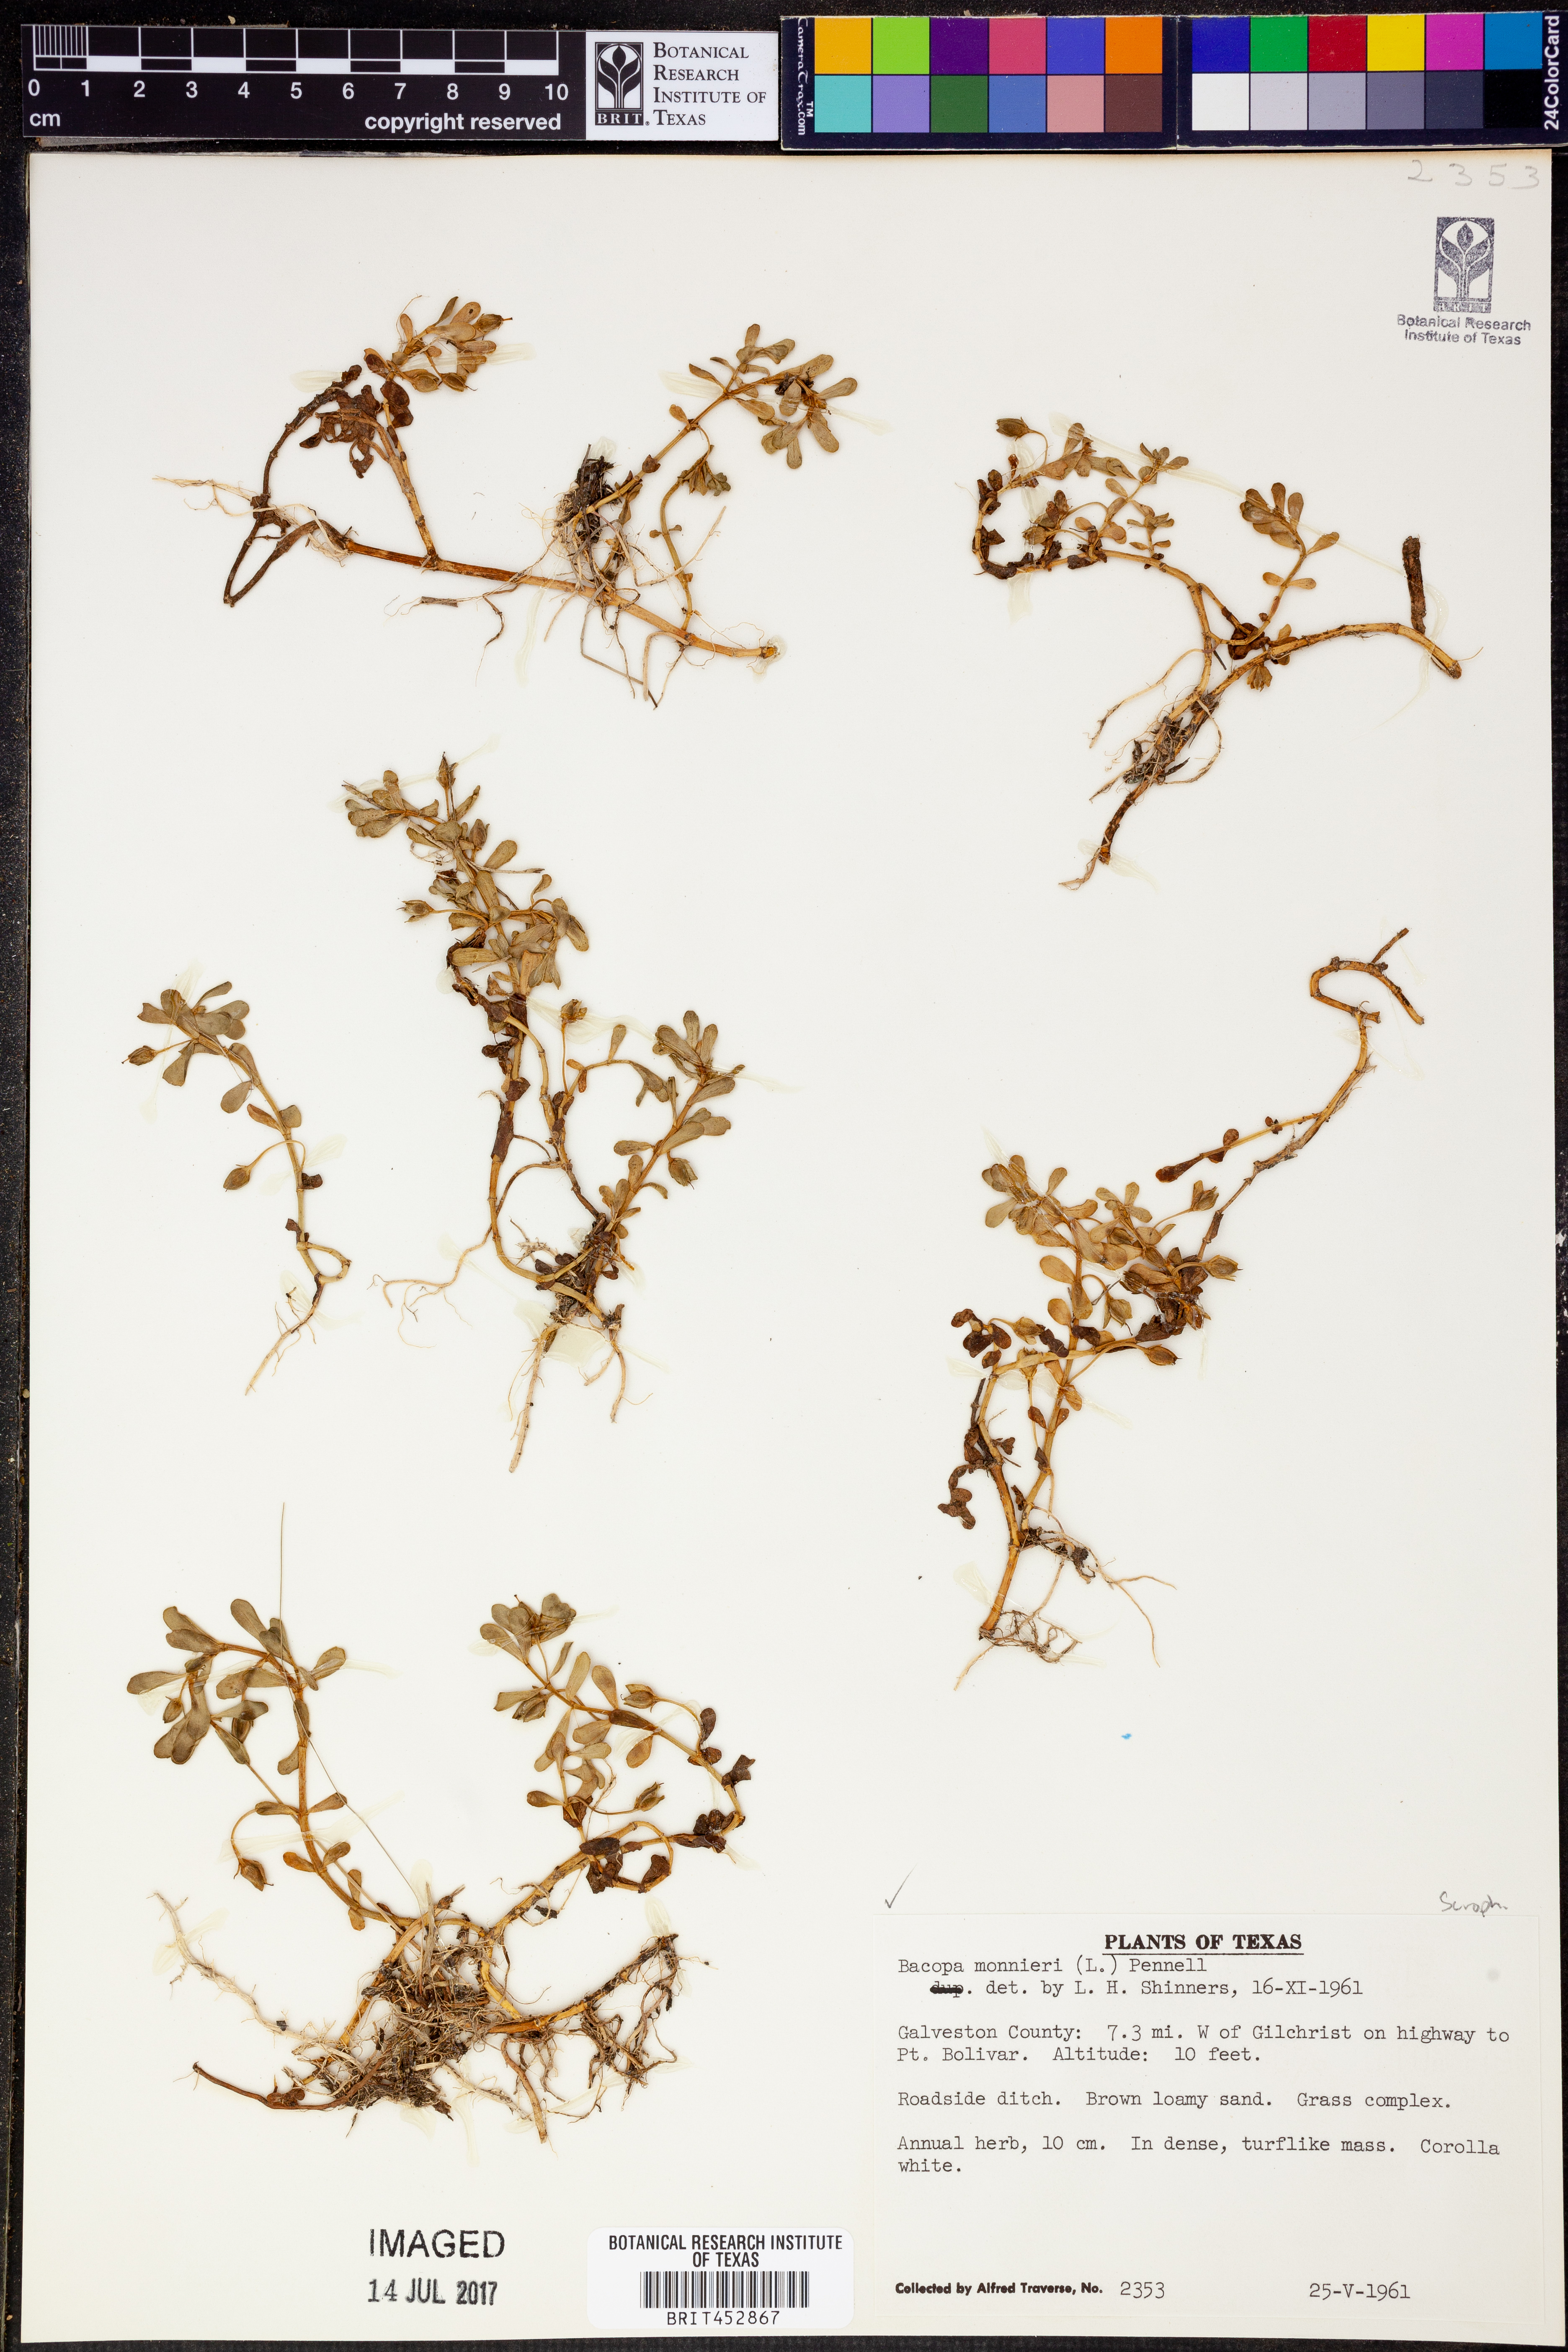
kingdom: Plantae
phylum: Tracheophyta
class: Magnoliopsida
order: Lamiales
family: Plantaginaceae
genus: Bacopa
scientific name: Bacopa monnieri
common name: Indian-pennywort
